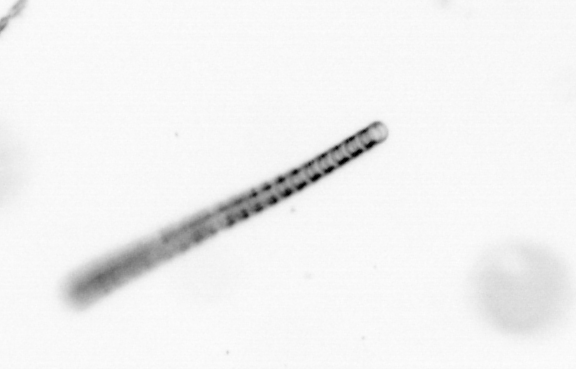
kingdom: Chromista
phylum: Ochrophyta
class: Bacillariophyceae
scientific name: Bacillariophyceae
